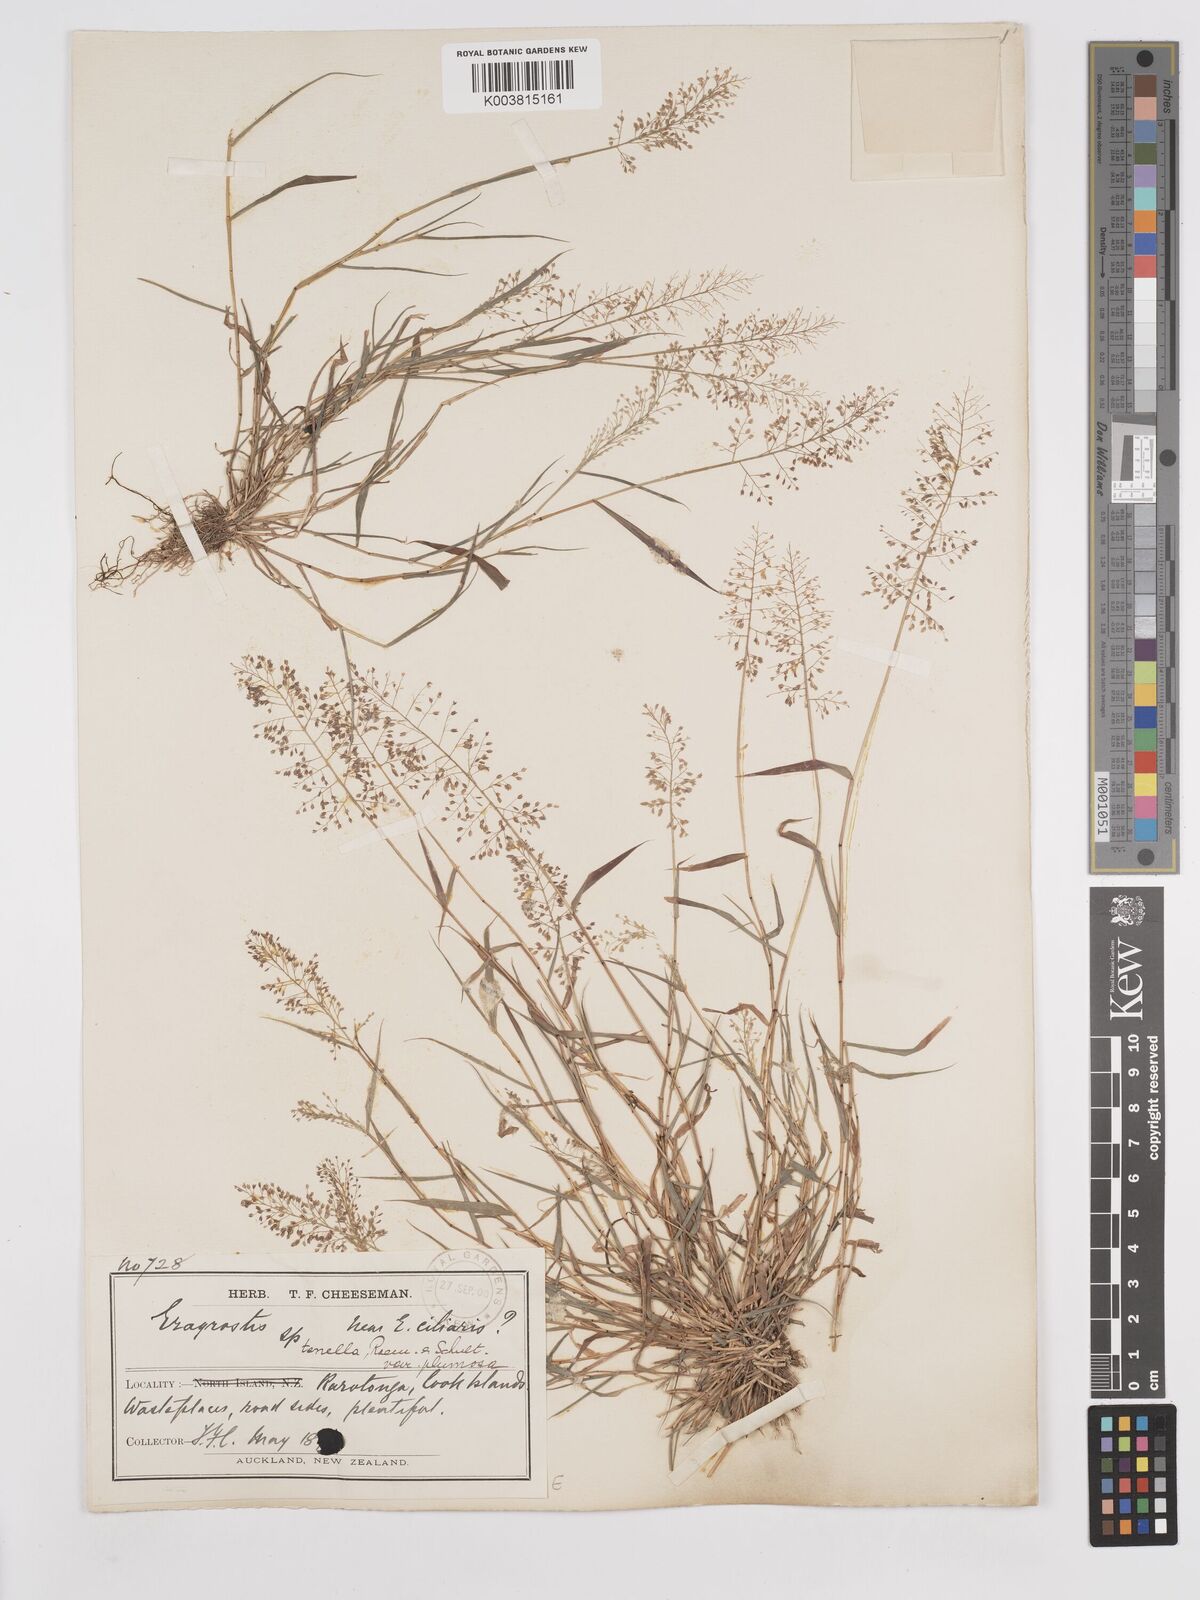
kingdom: Plantae
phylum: Tracheophyta
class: Liliopsida
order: Poales
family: Poaceae
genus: Eragrostis
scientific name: Eragrostis tenella
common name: Japanese lovegrass
